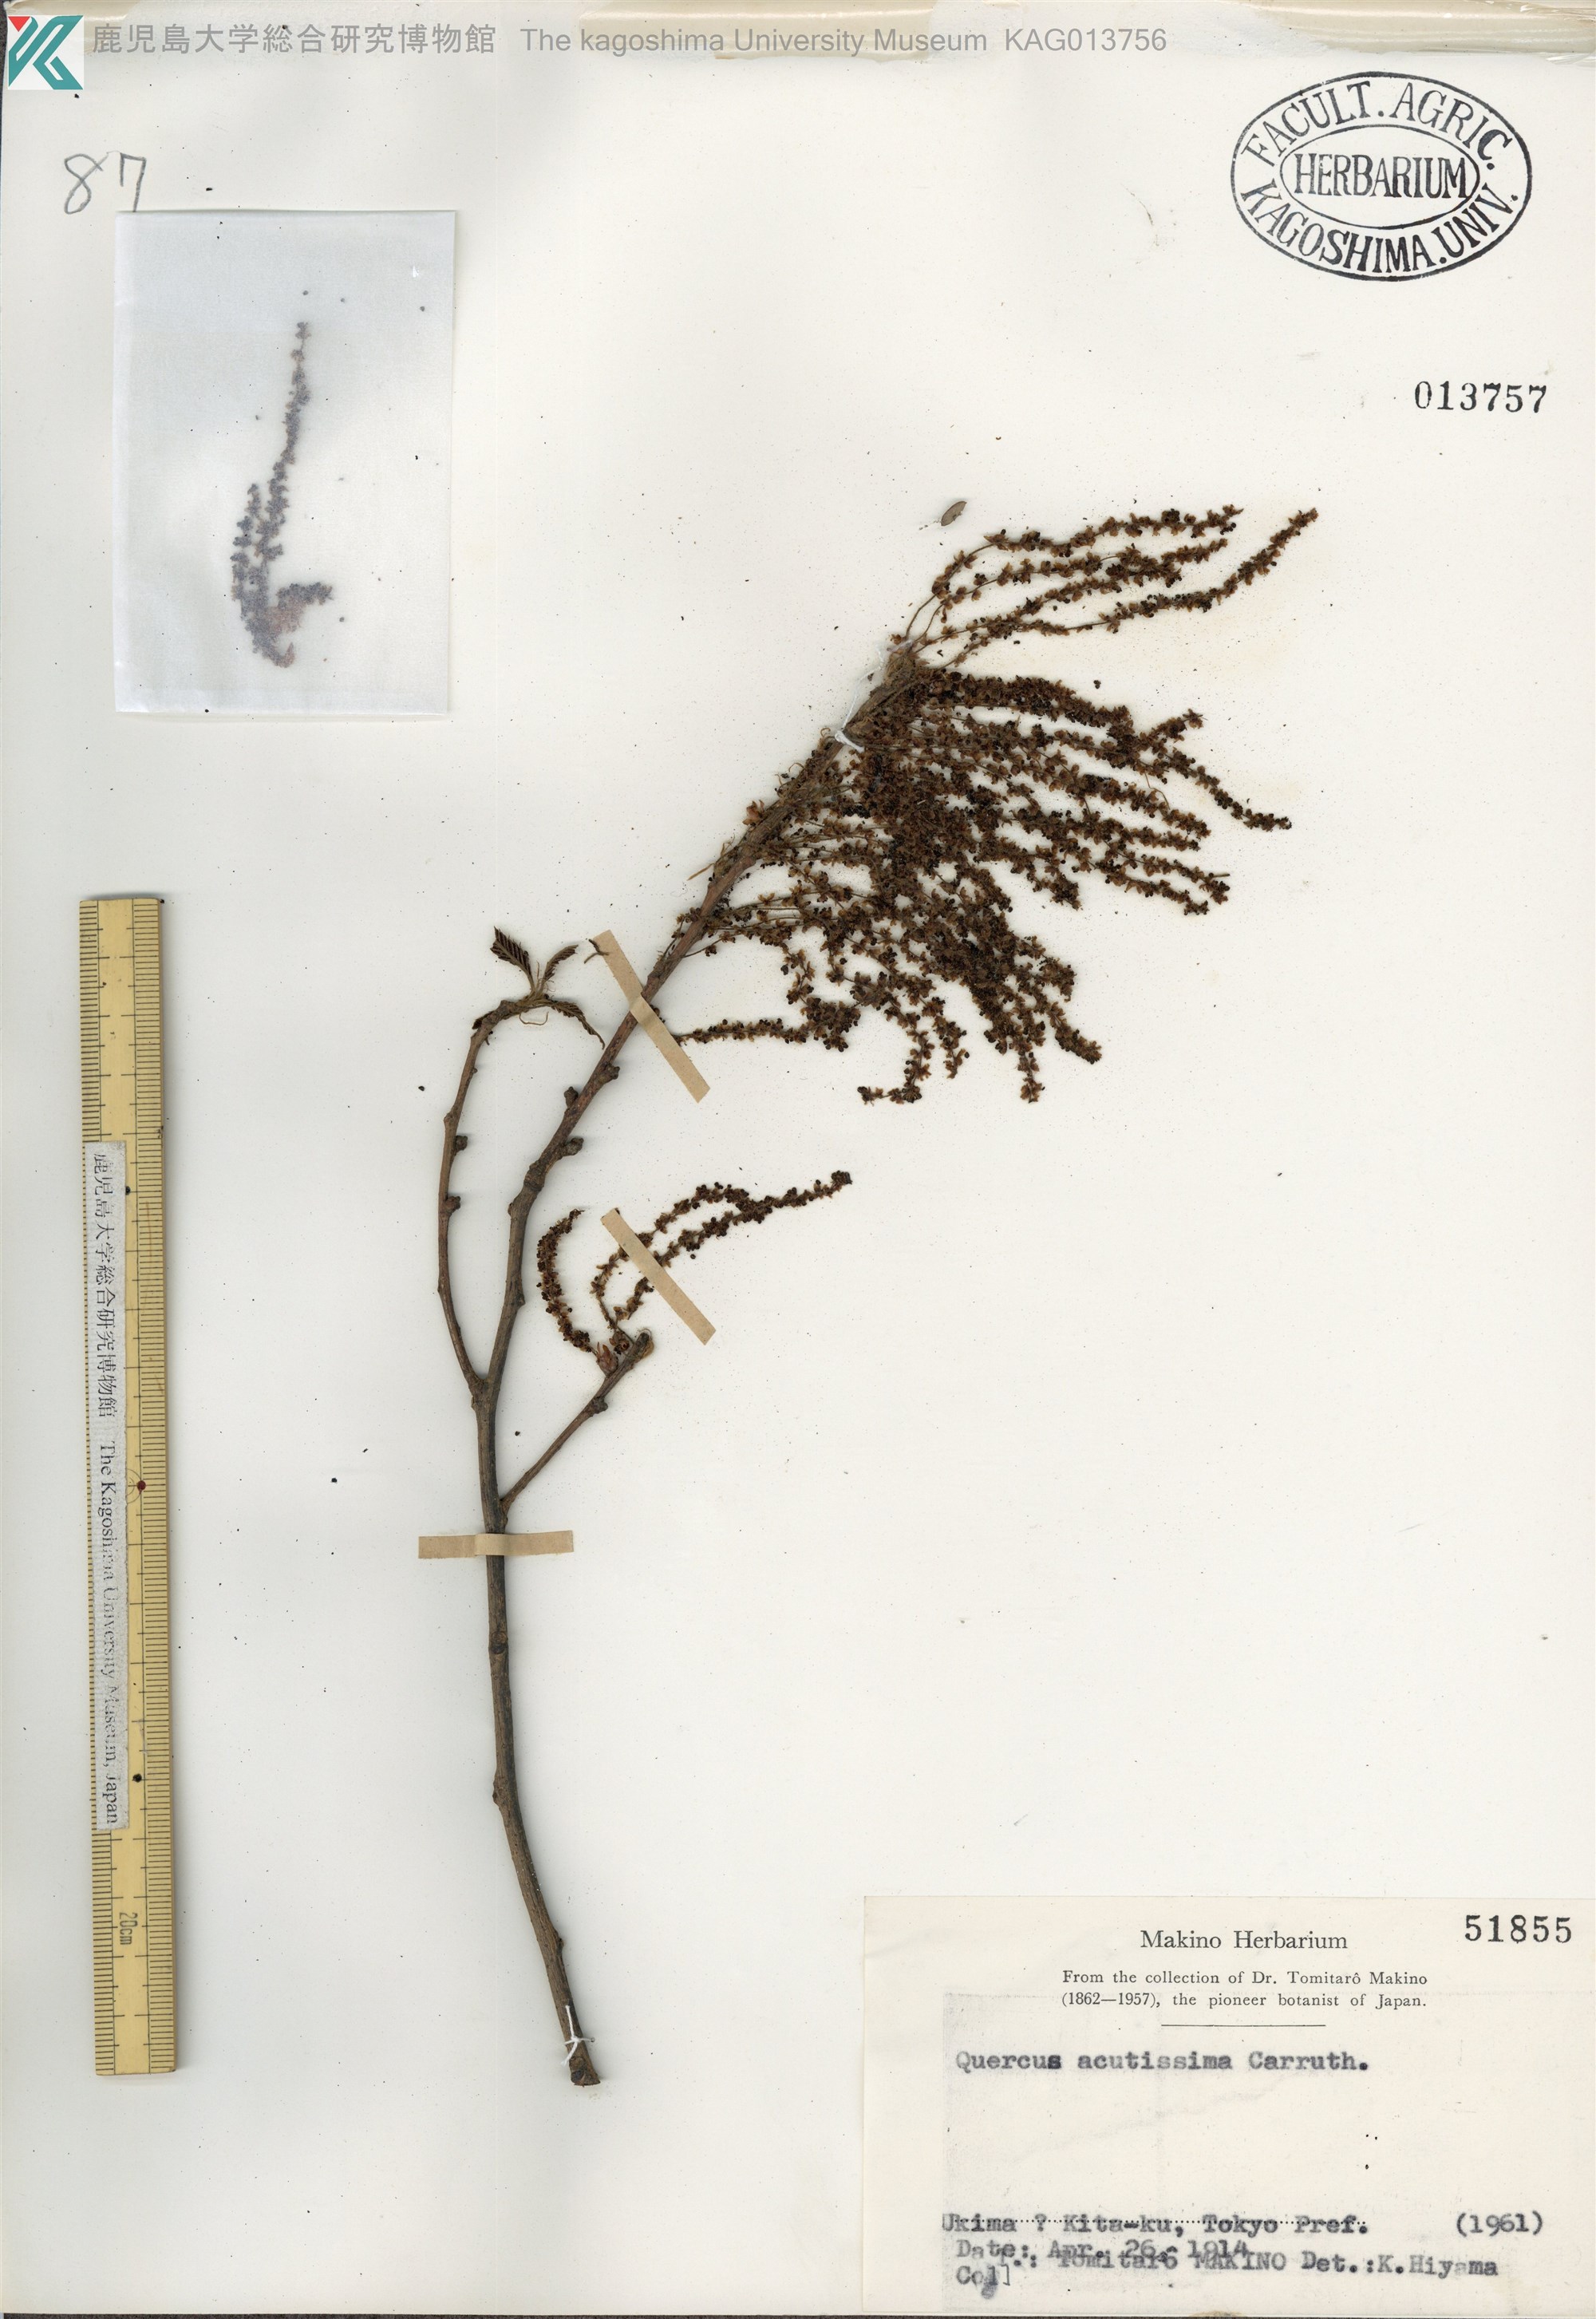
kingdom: Plantae
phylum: Tracheophyta
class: Magnoliopsida
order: Fagales
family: Fagaceae
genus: Quercus
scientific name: Quercus acutissima
